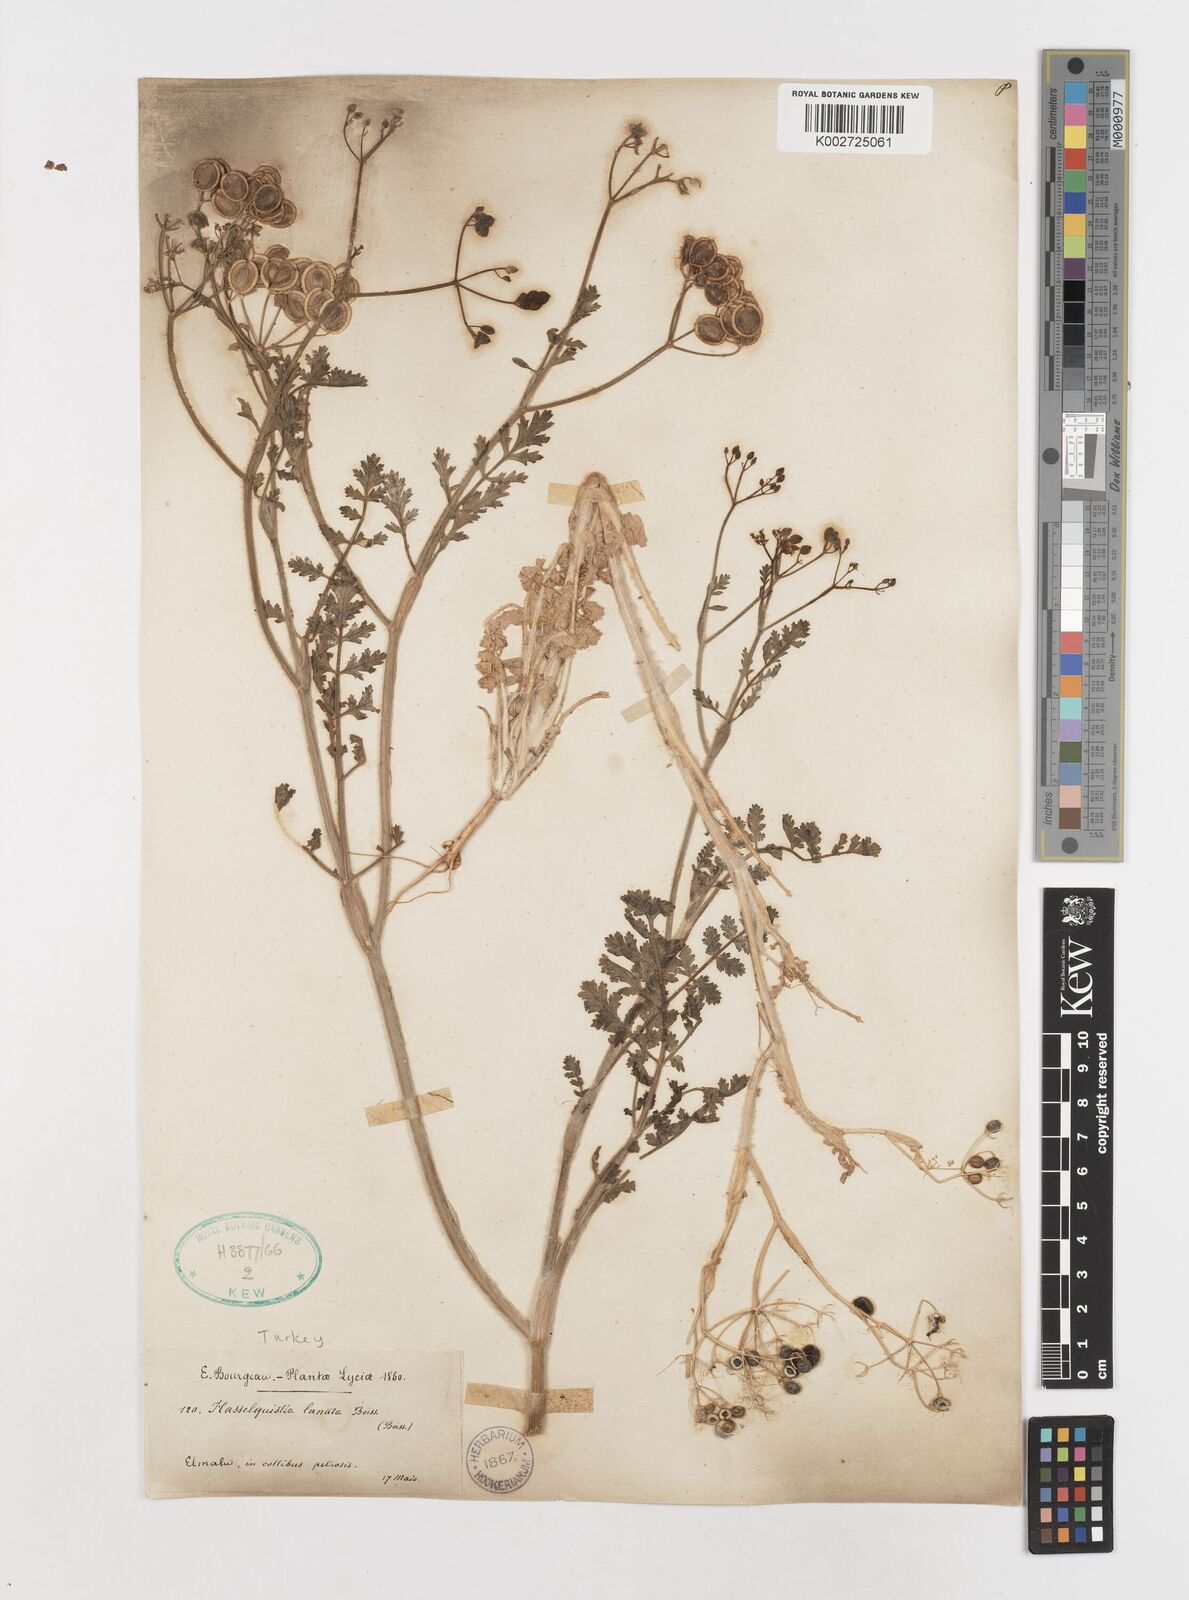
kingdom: Plantae
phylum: Tracheophyta
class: Magnoliopsida
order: Apiales
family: Apiaceae
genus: Tordylium
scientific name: Tordylium lanatum
